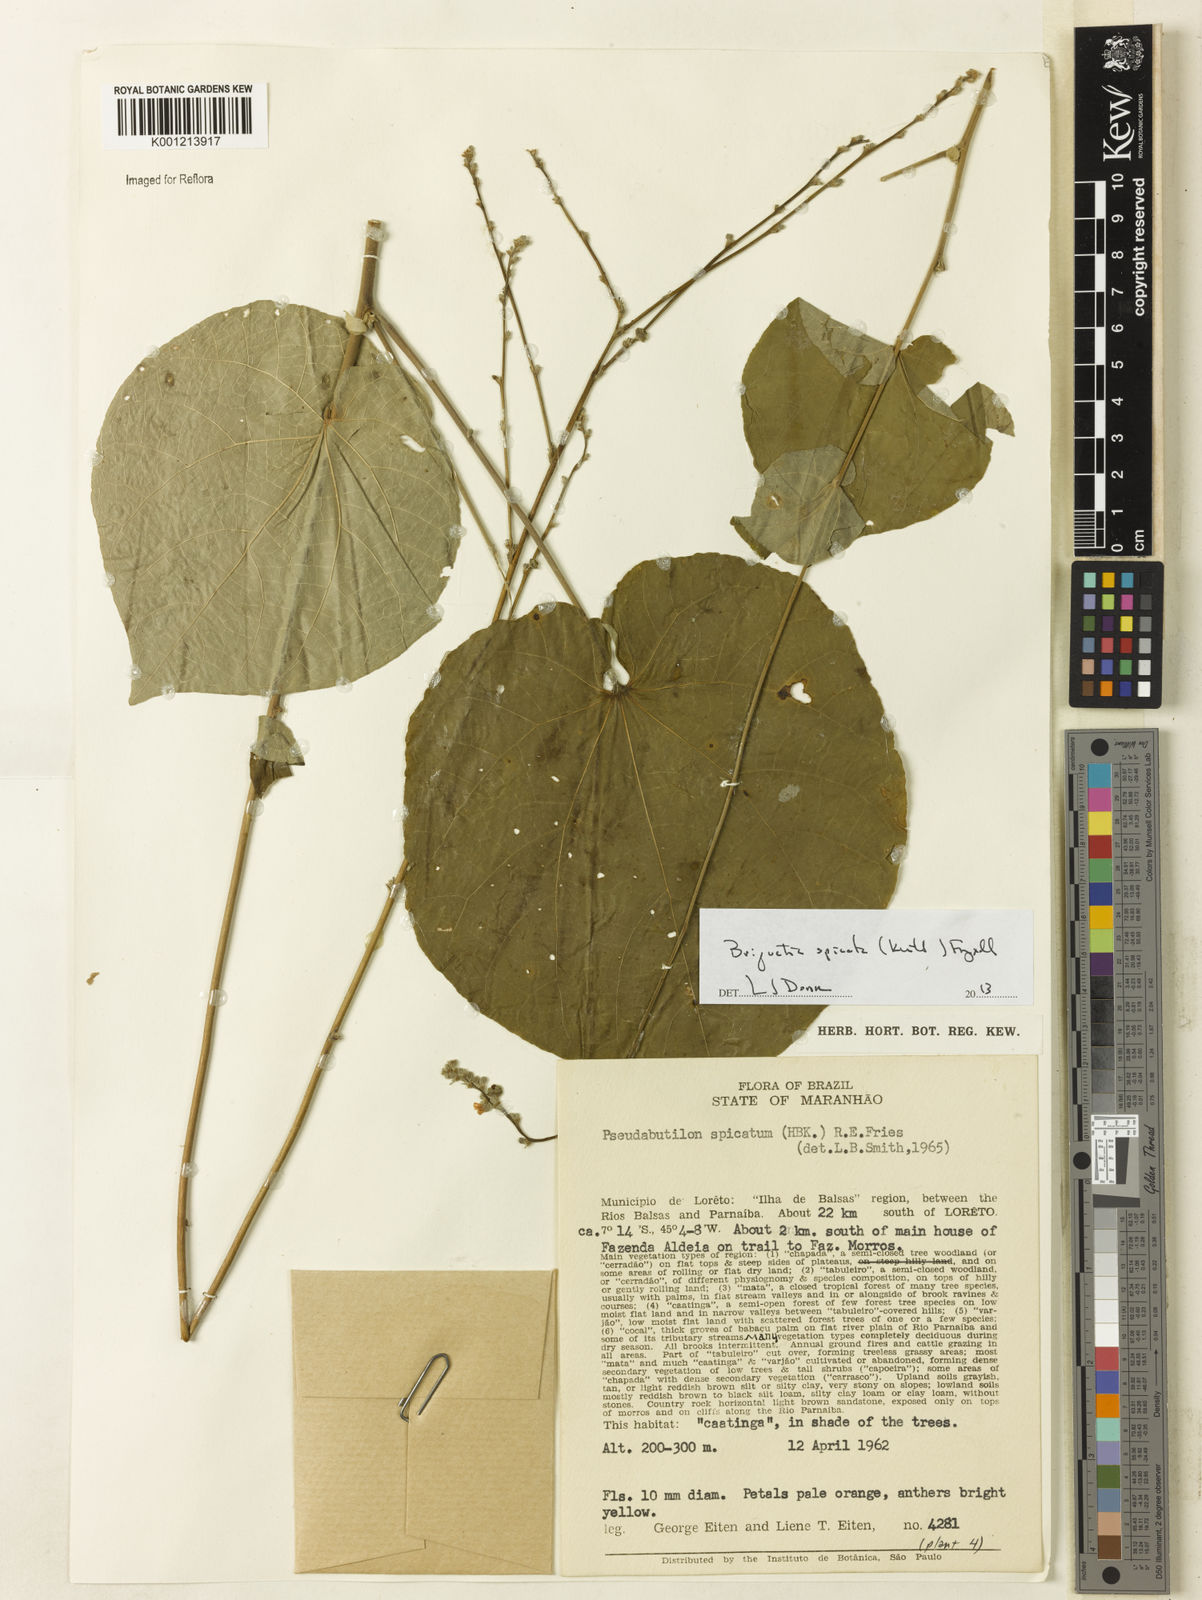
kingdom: Plantae
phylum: Tracheophyta
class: Magnoliopsida
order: Malvales
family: Malvaceae
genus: Allobriquetia
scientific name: Allobriquetia spicata
